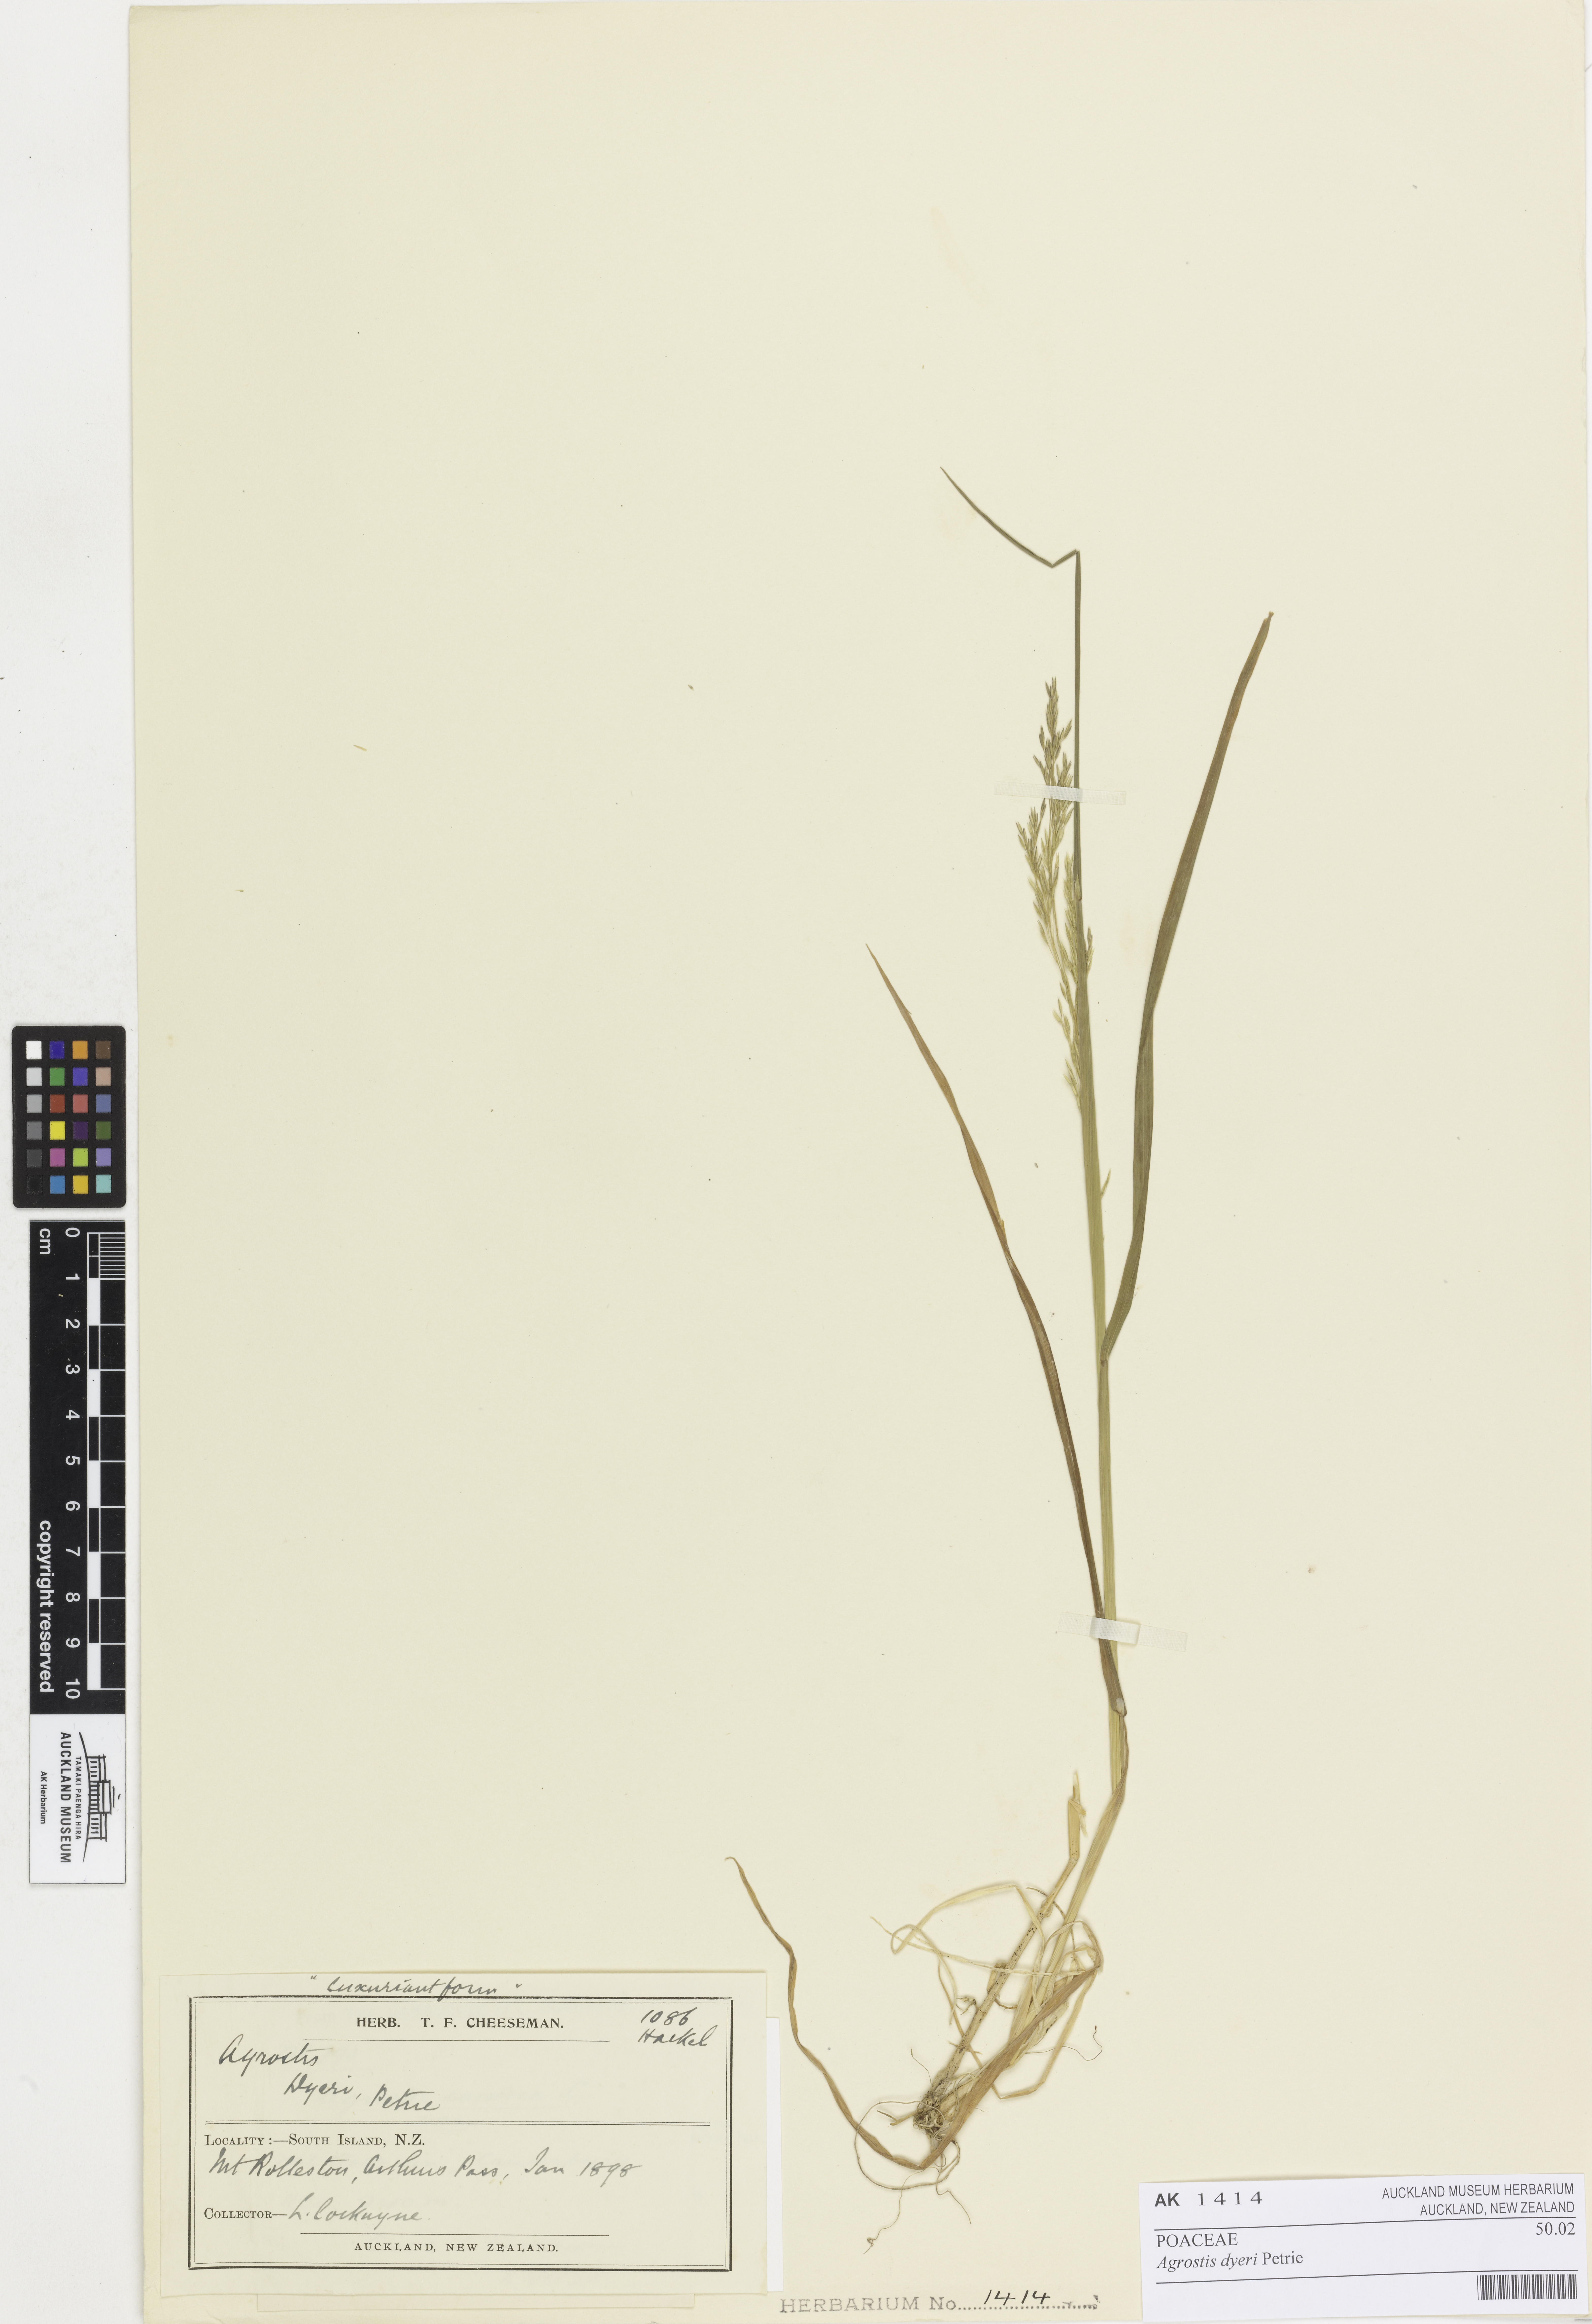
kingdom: Plantae
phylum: Tracheophyta
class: Liliopsida
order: Poales
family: Poaceae
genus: Agrostis
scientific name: Agrostis dyeri
